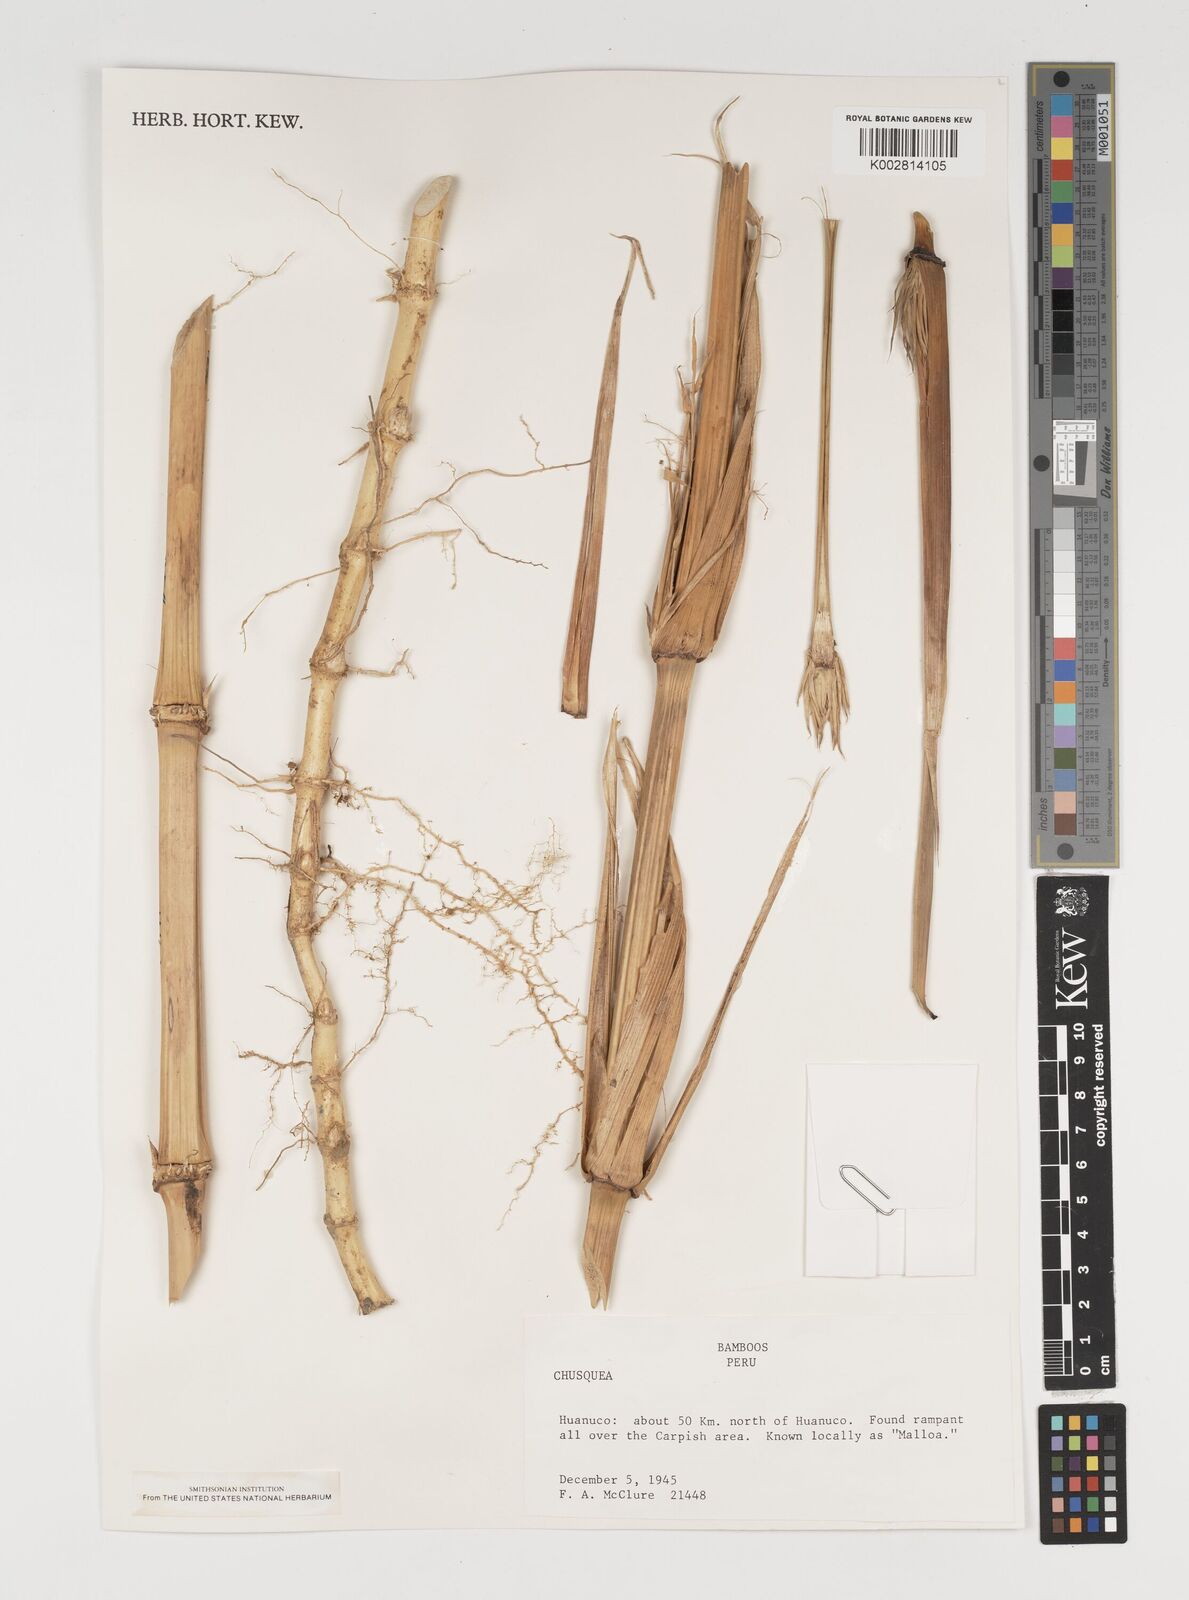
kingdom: Plantae
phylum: Tracheophyta
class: Liliopsida
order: Poales
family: Poaceae
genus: Chusquea
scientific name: Chusquea
